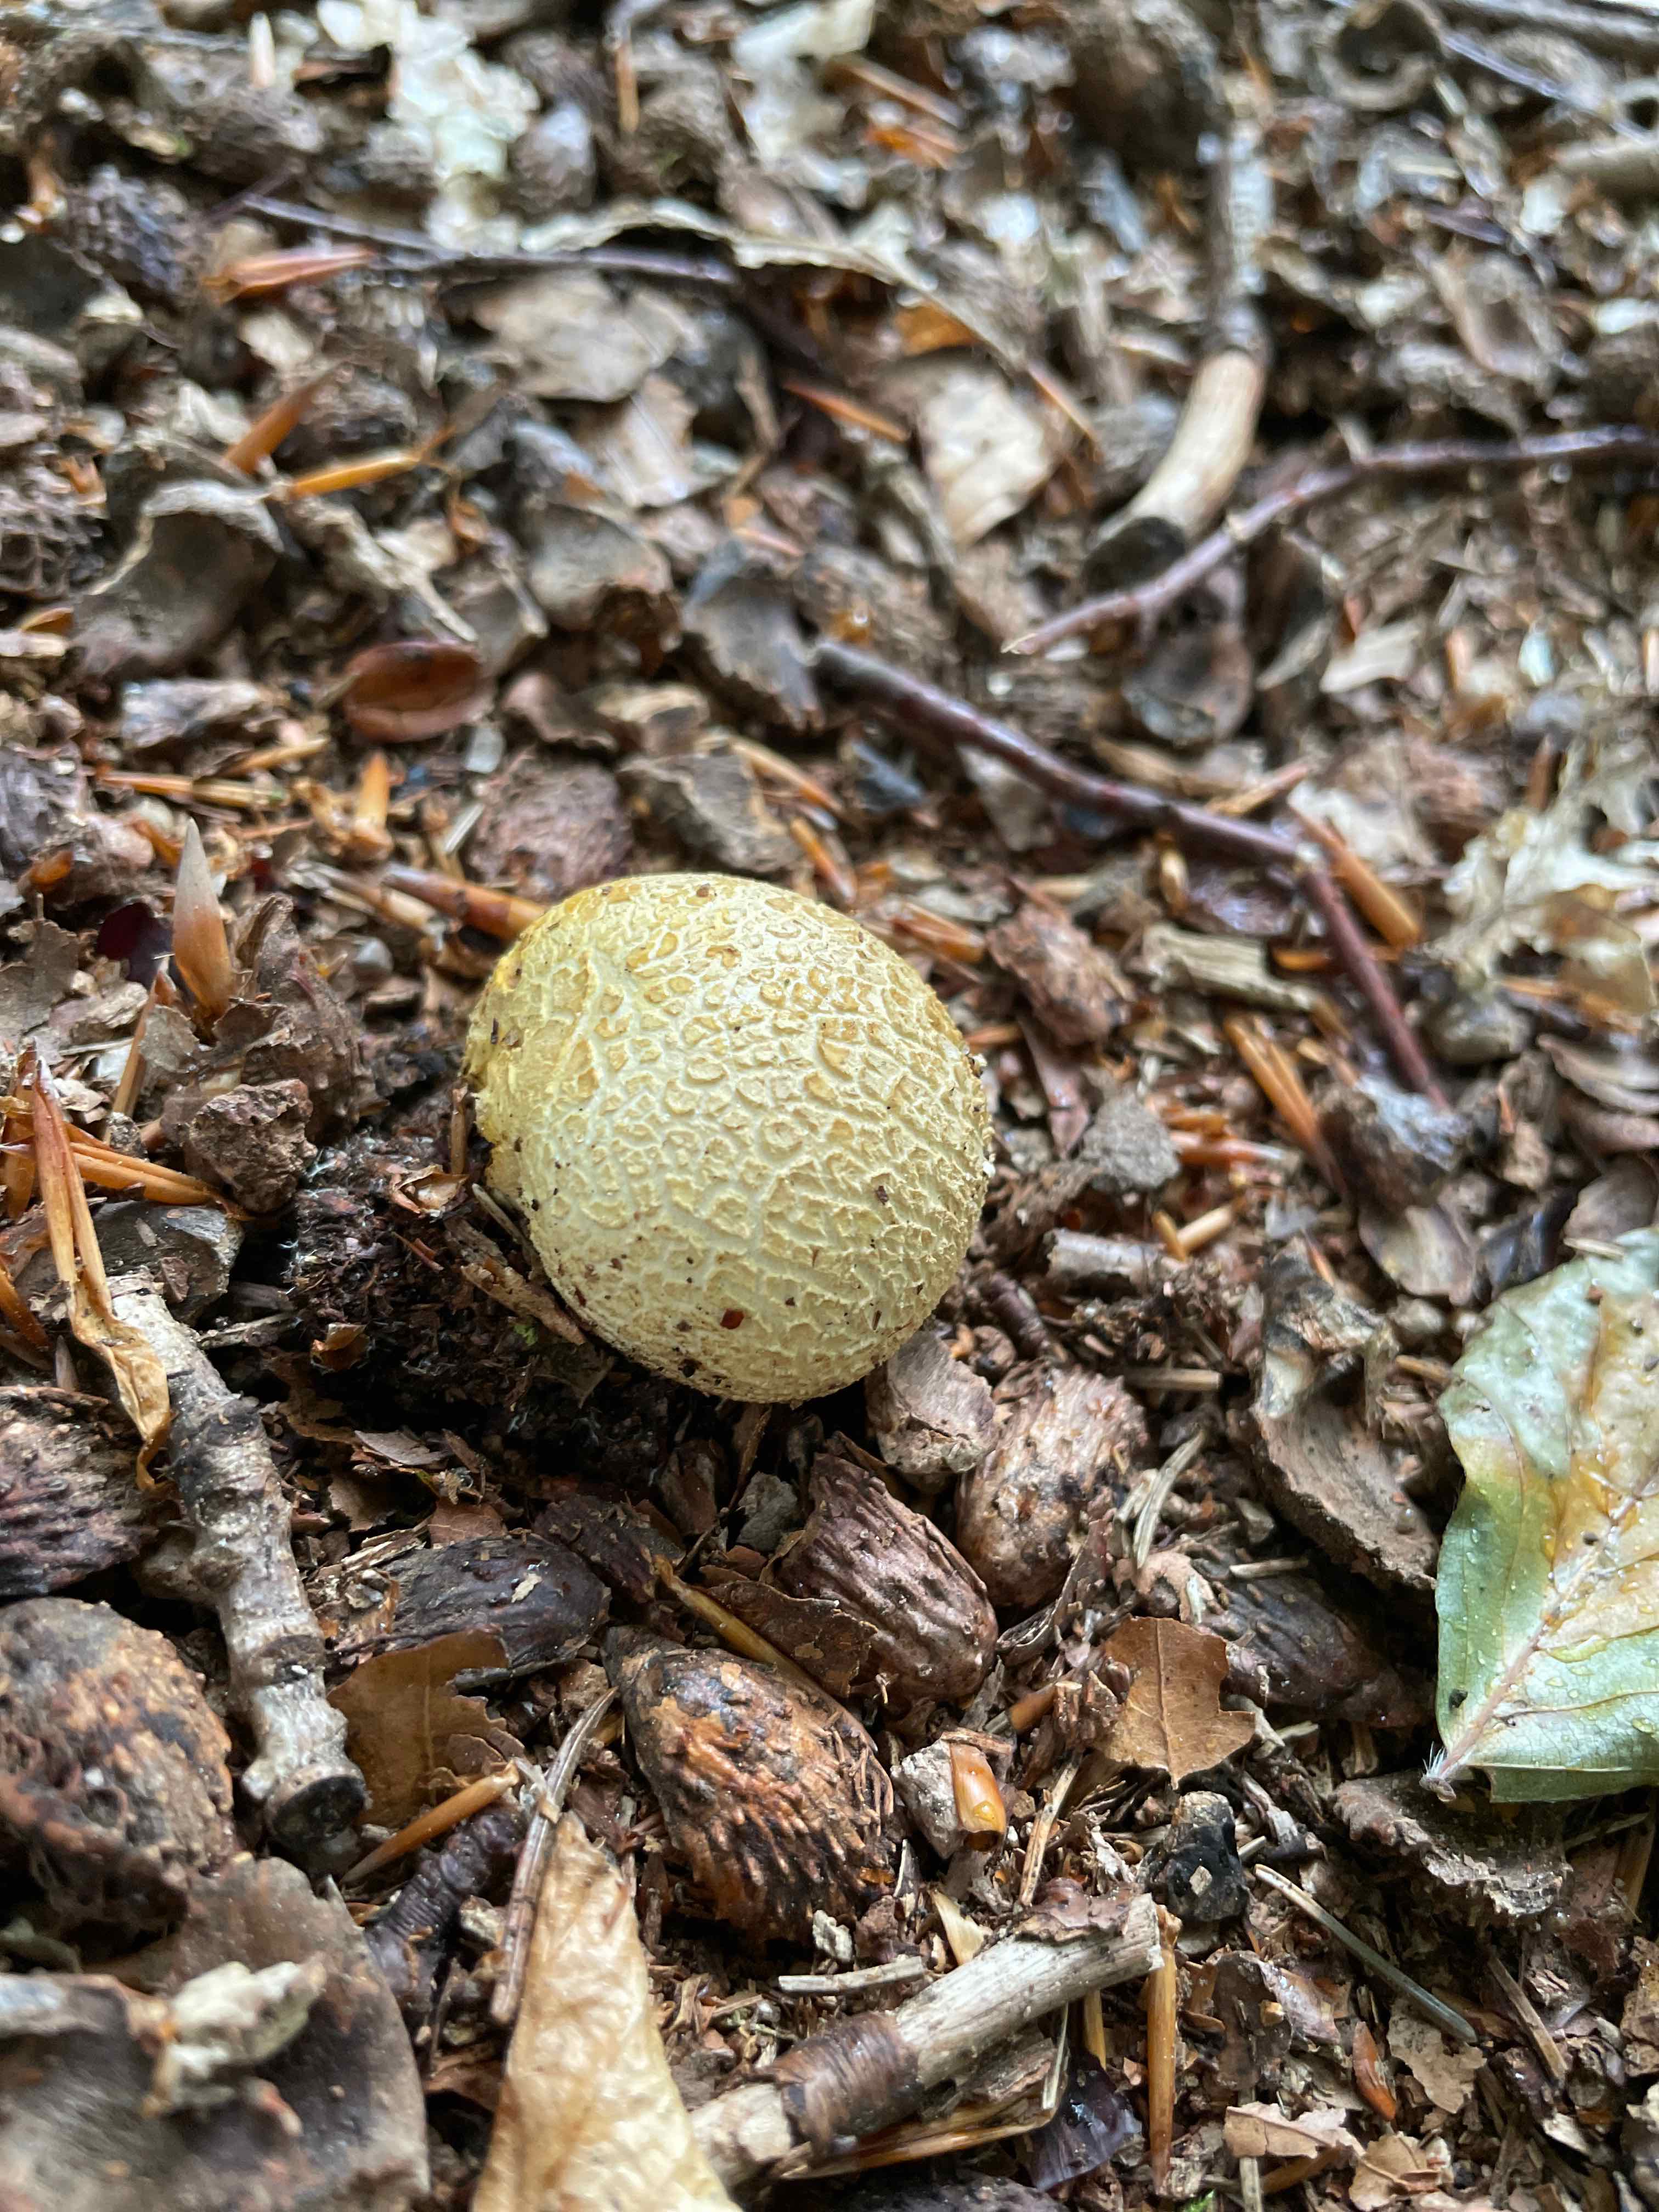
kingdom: Fungi
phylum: Basidiomycota
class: Agaricomycetes
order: Boletales
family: Sclerodermataceae
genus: Scleroderma
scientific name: Scleroderma citrinum
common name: almindelig bruskbold
